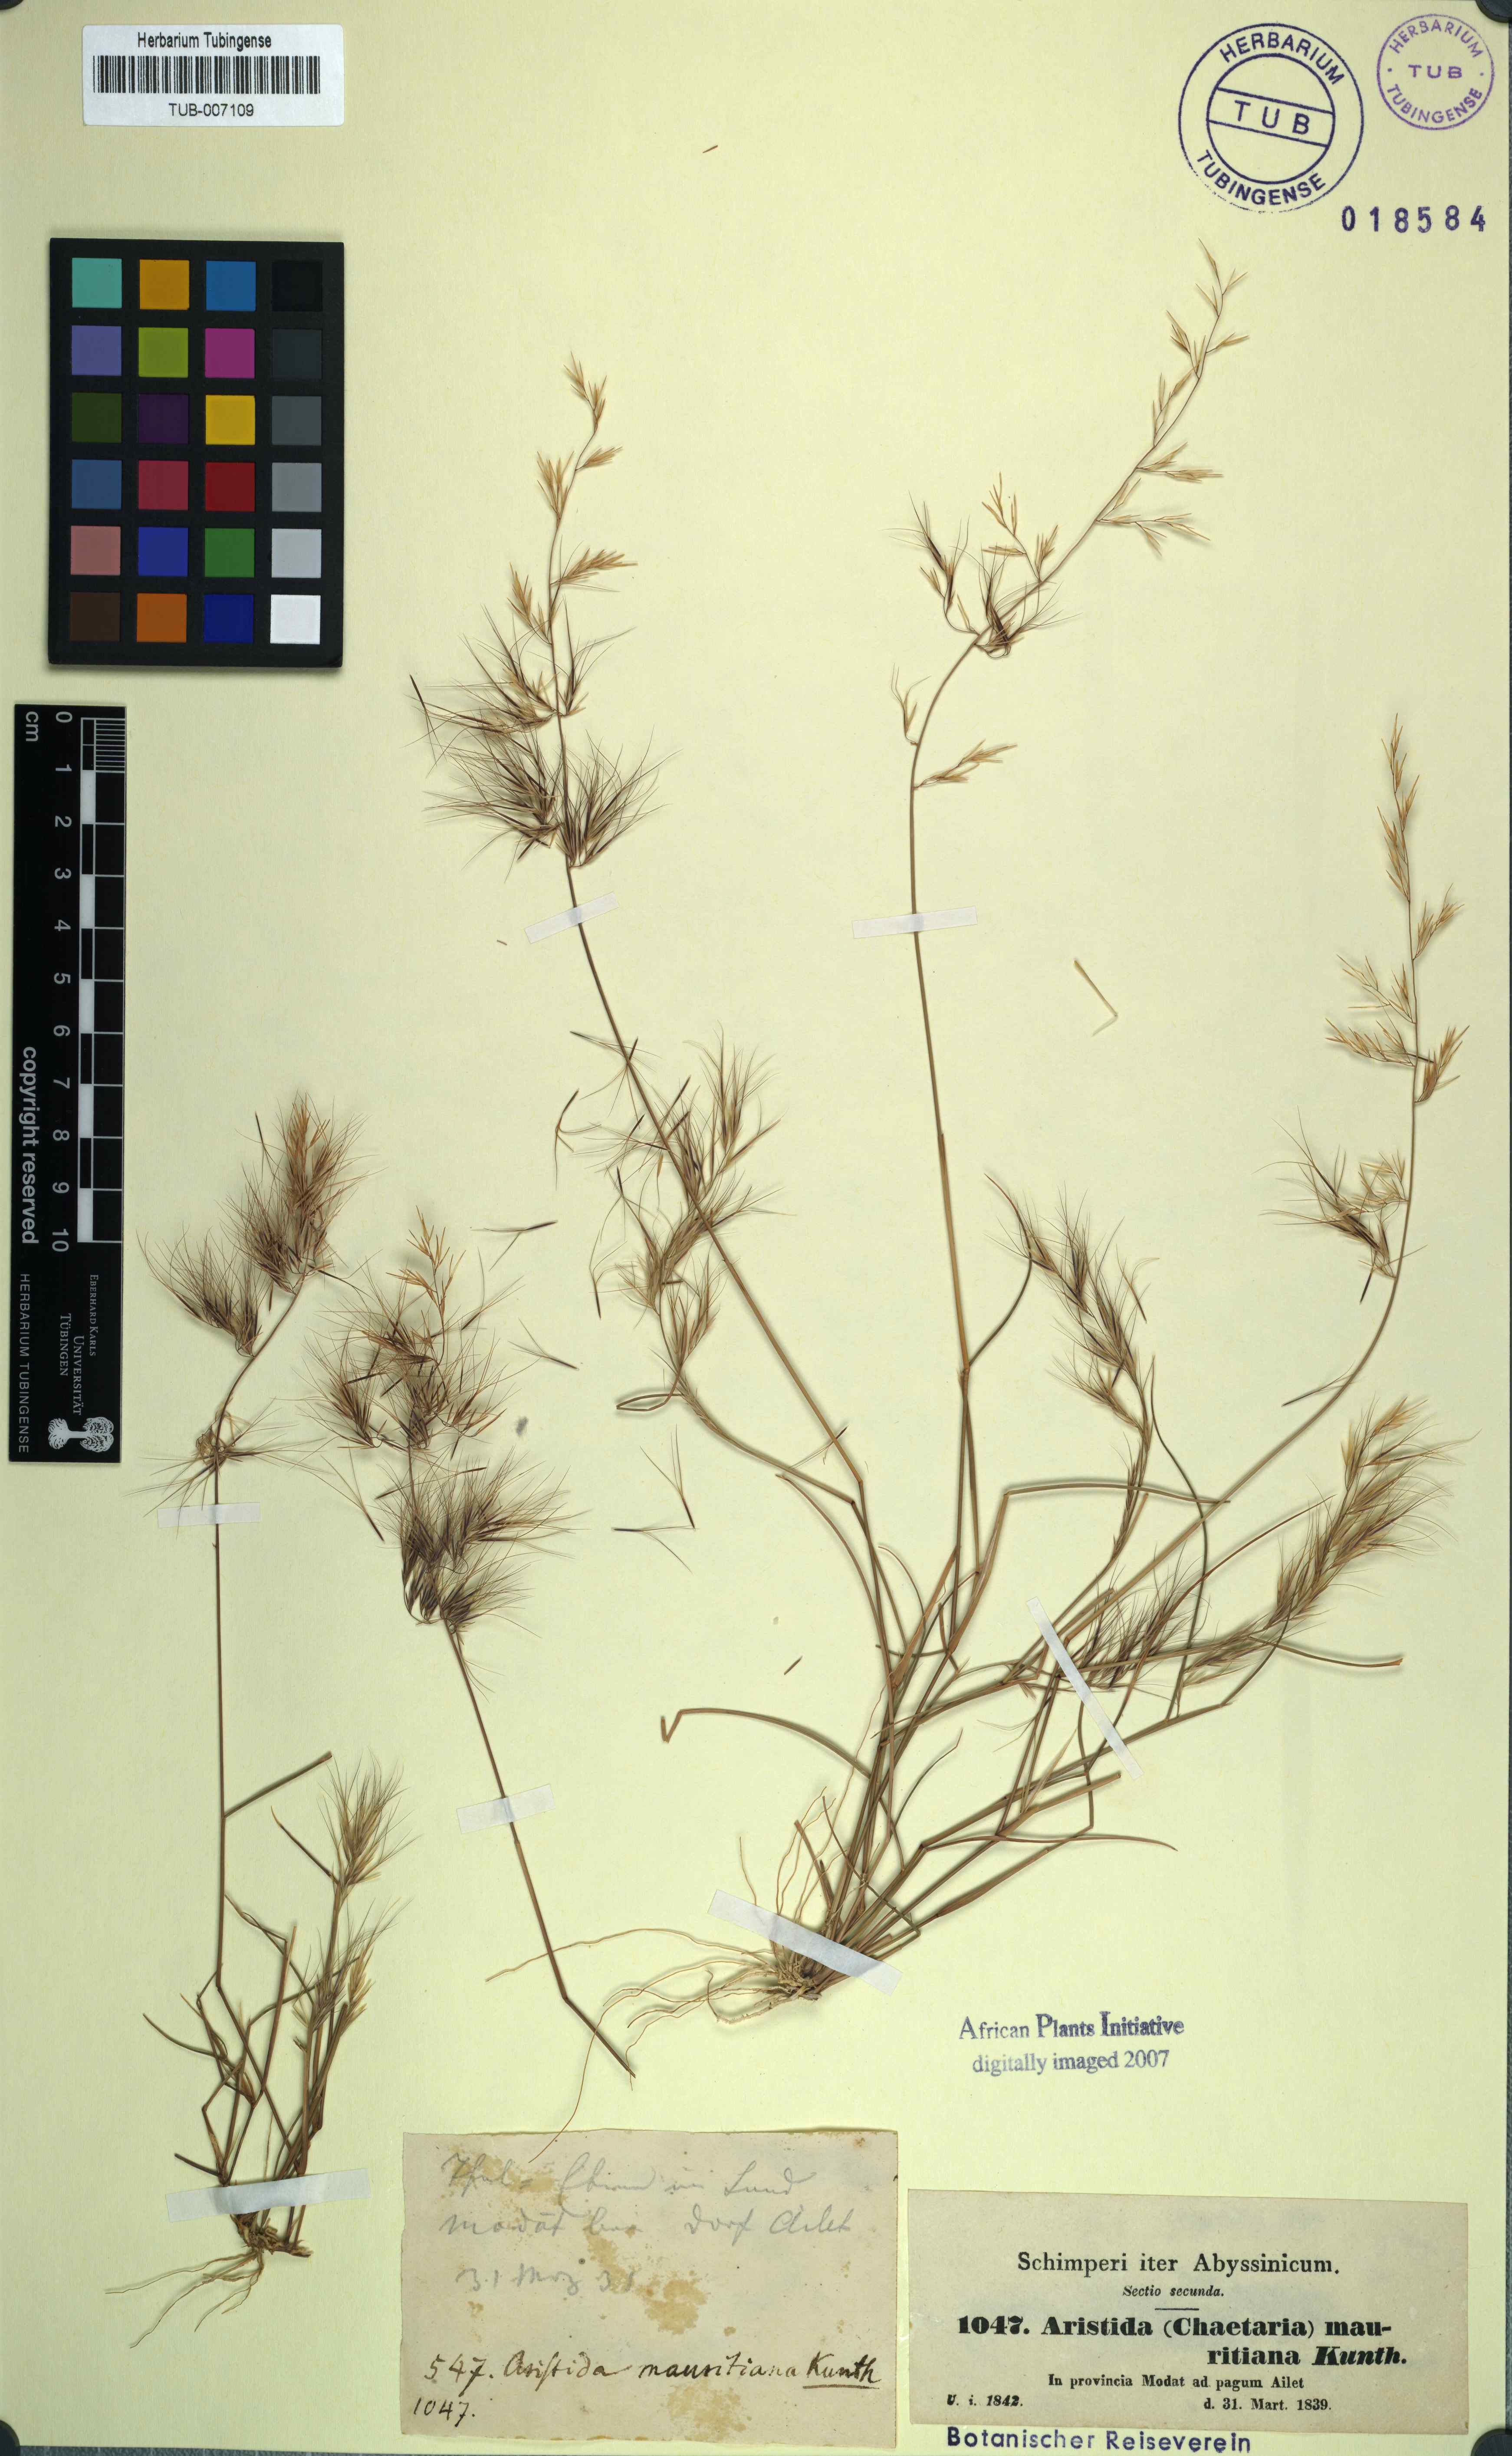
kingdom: Plantae
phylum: Tracheophyta
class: Liliopsida
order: Poales
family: Poaceae
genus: Aristida
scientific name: Aristida adoensis
